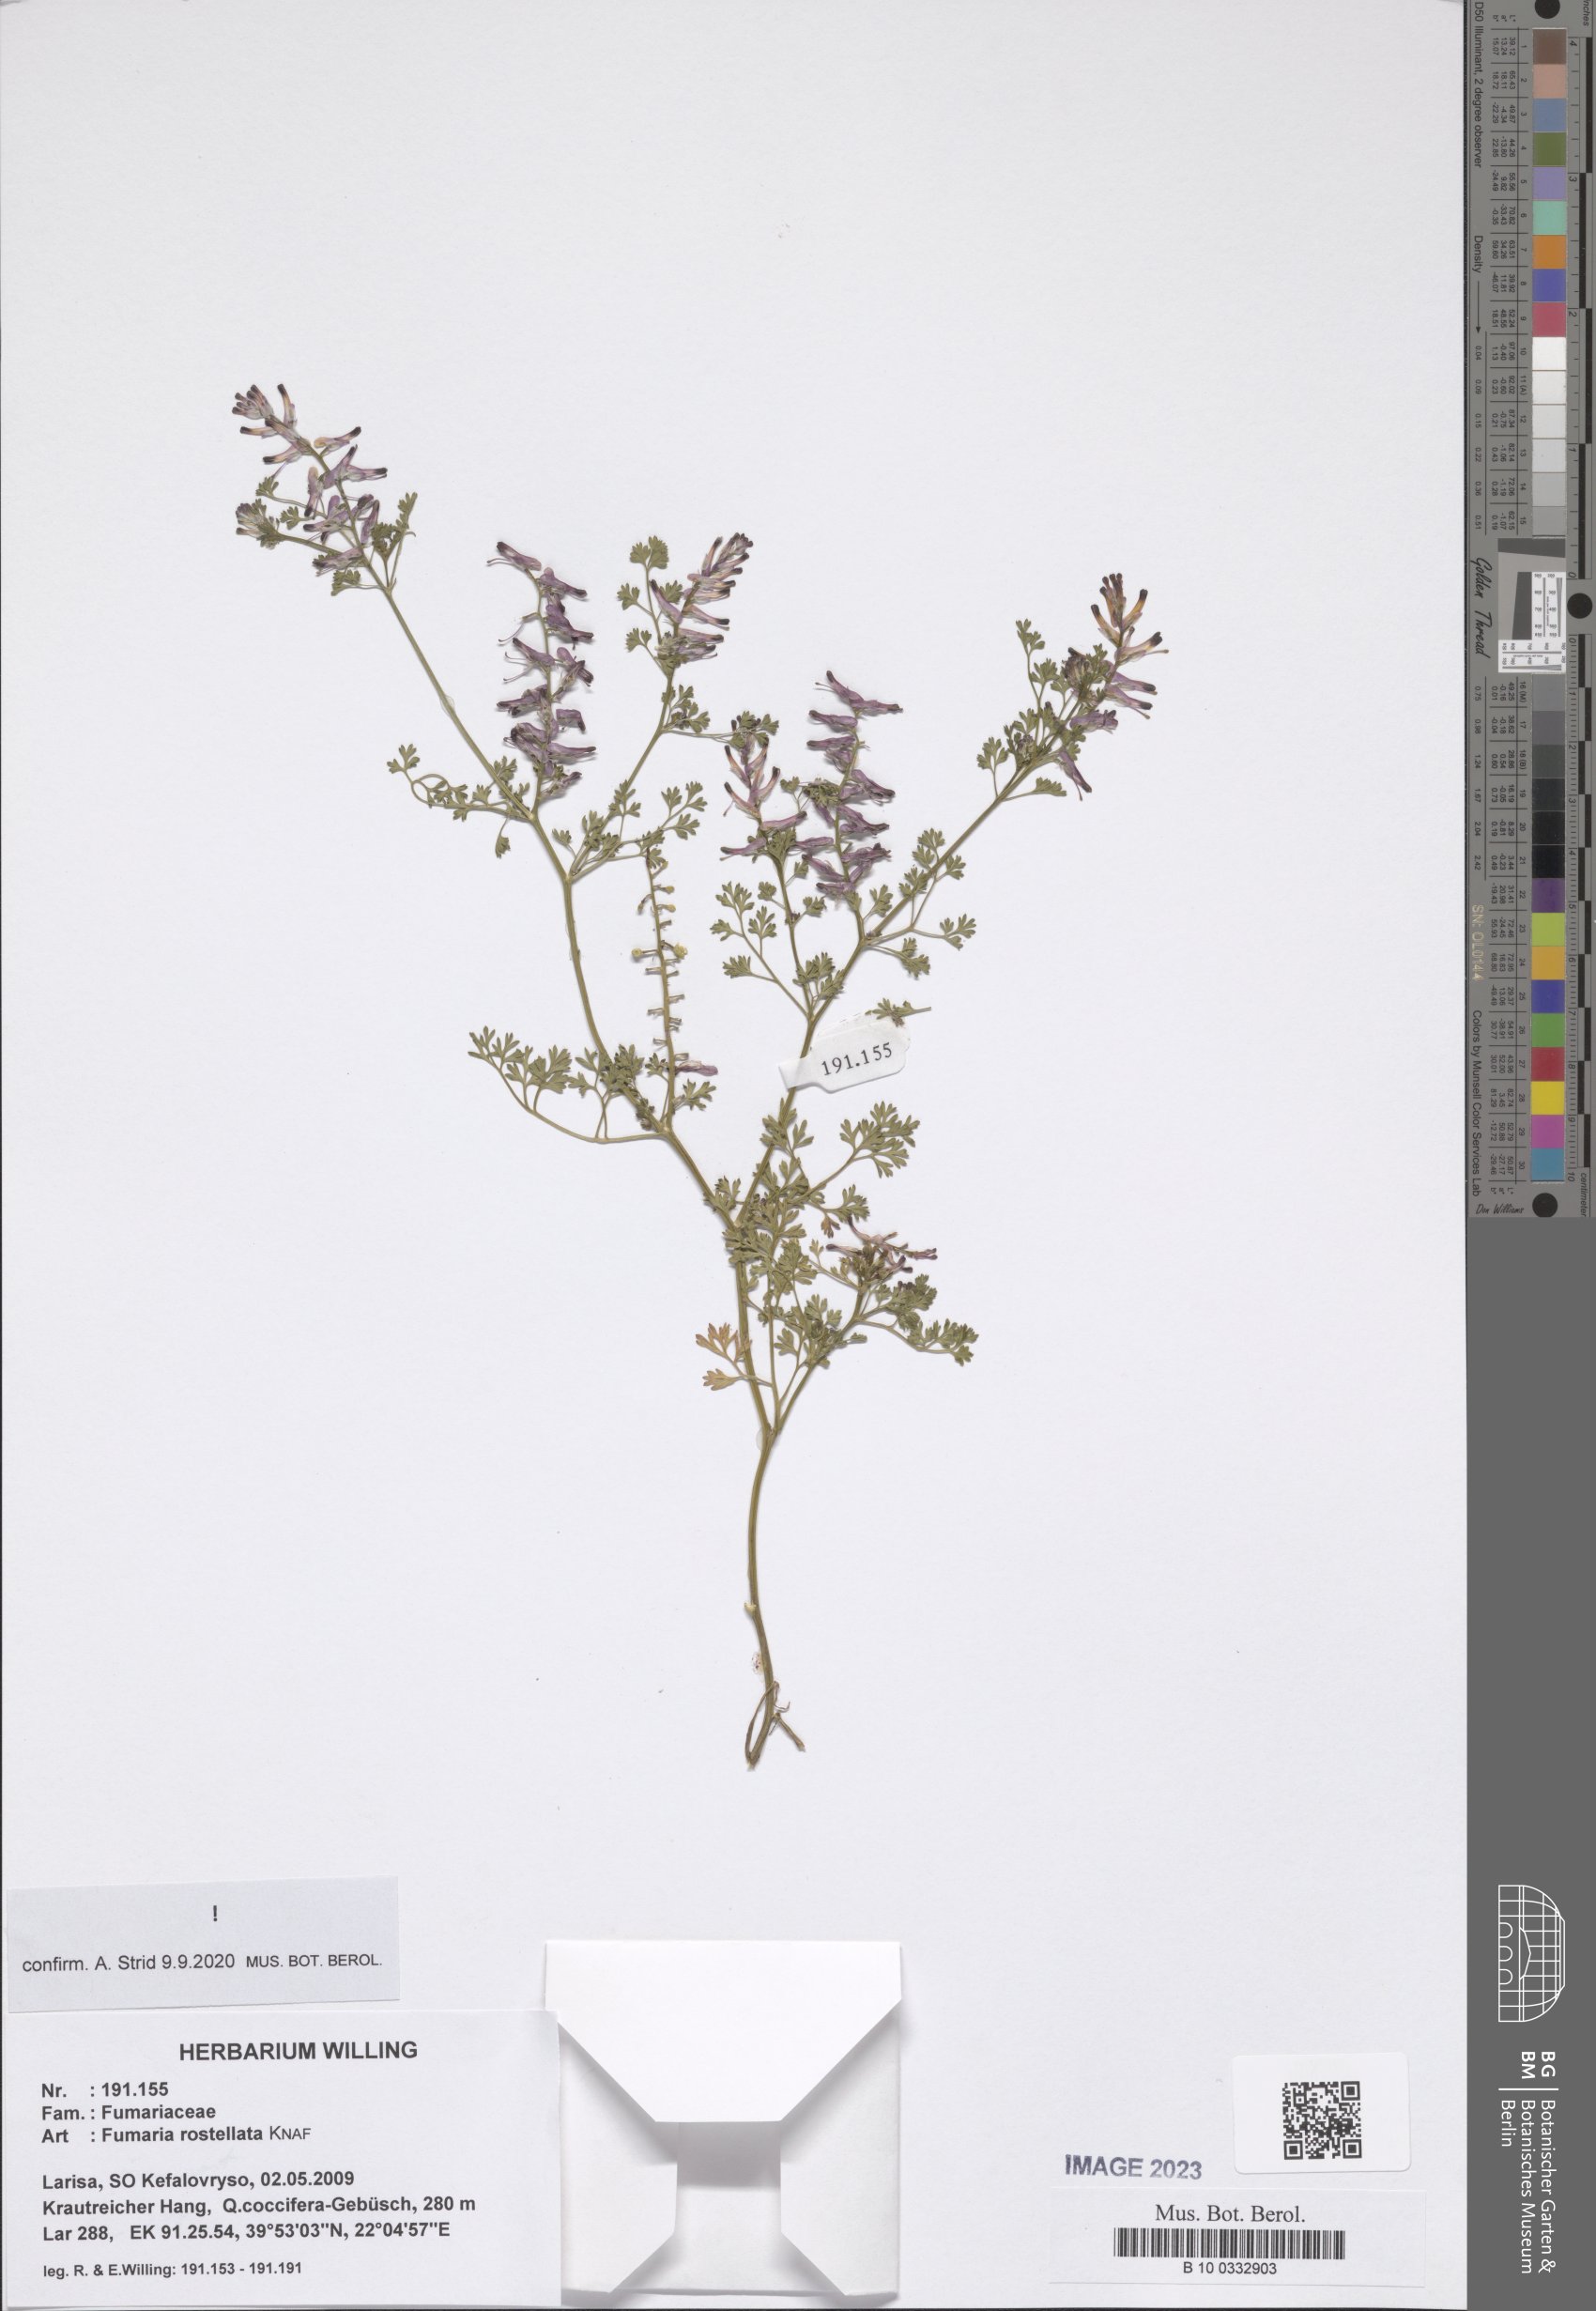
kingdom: Plantae
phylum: Tracheophyta
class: Magnoliopsida
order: Ranunculales
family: Papaveraceae
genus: Fumaria
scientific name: Fumaria rostellata
